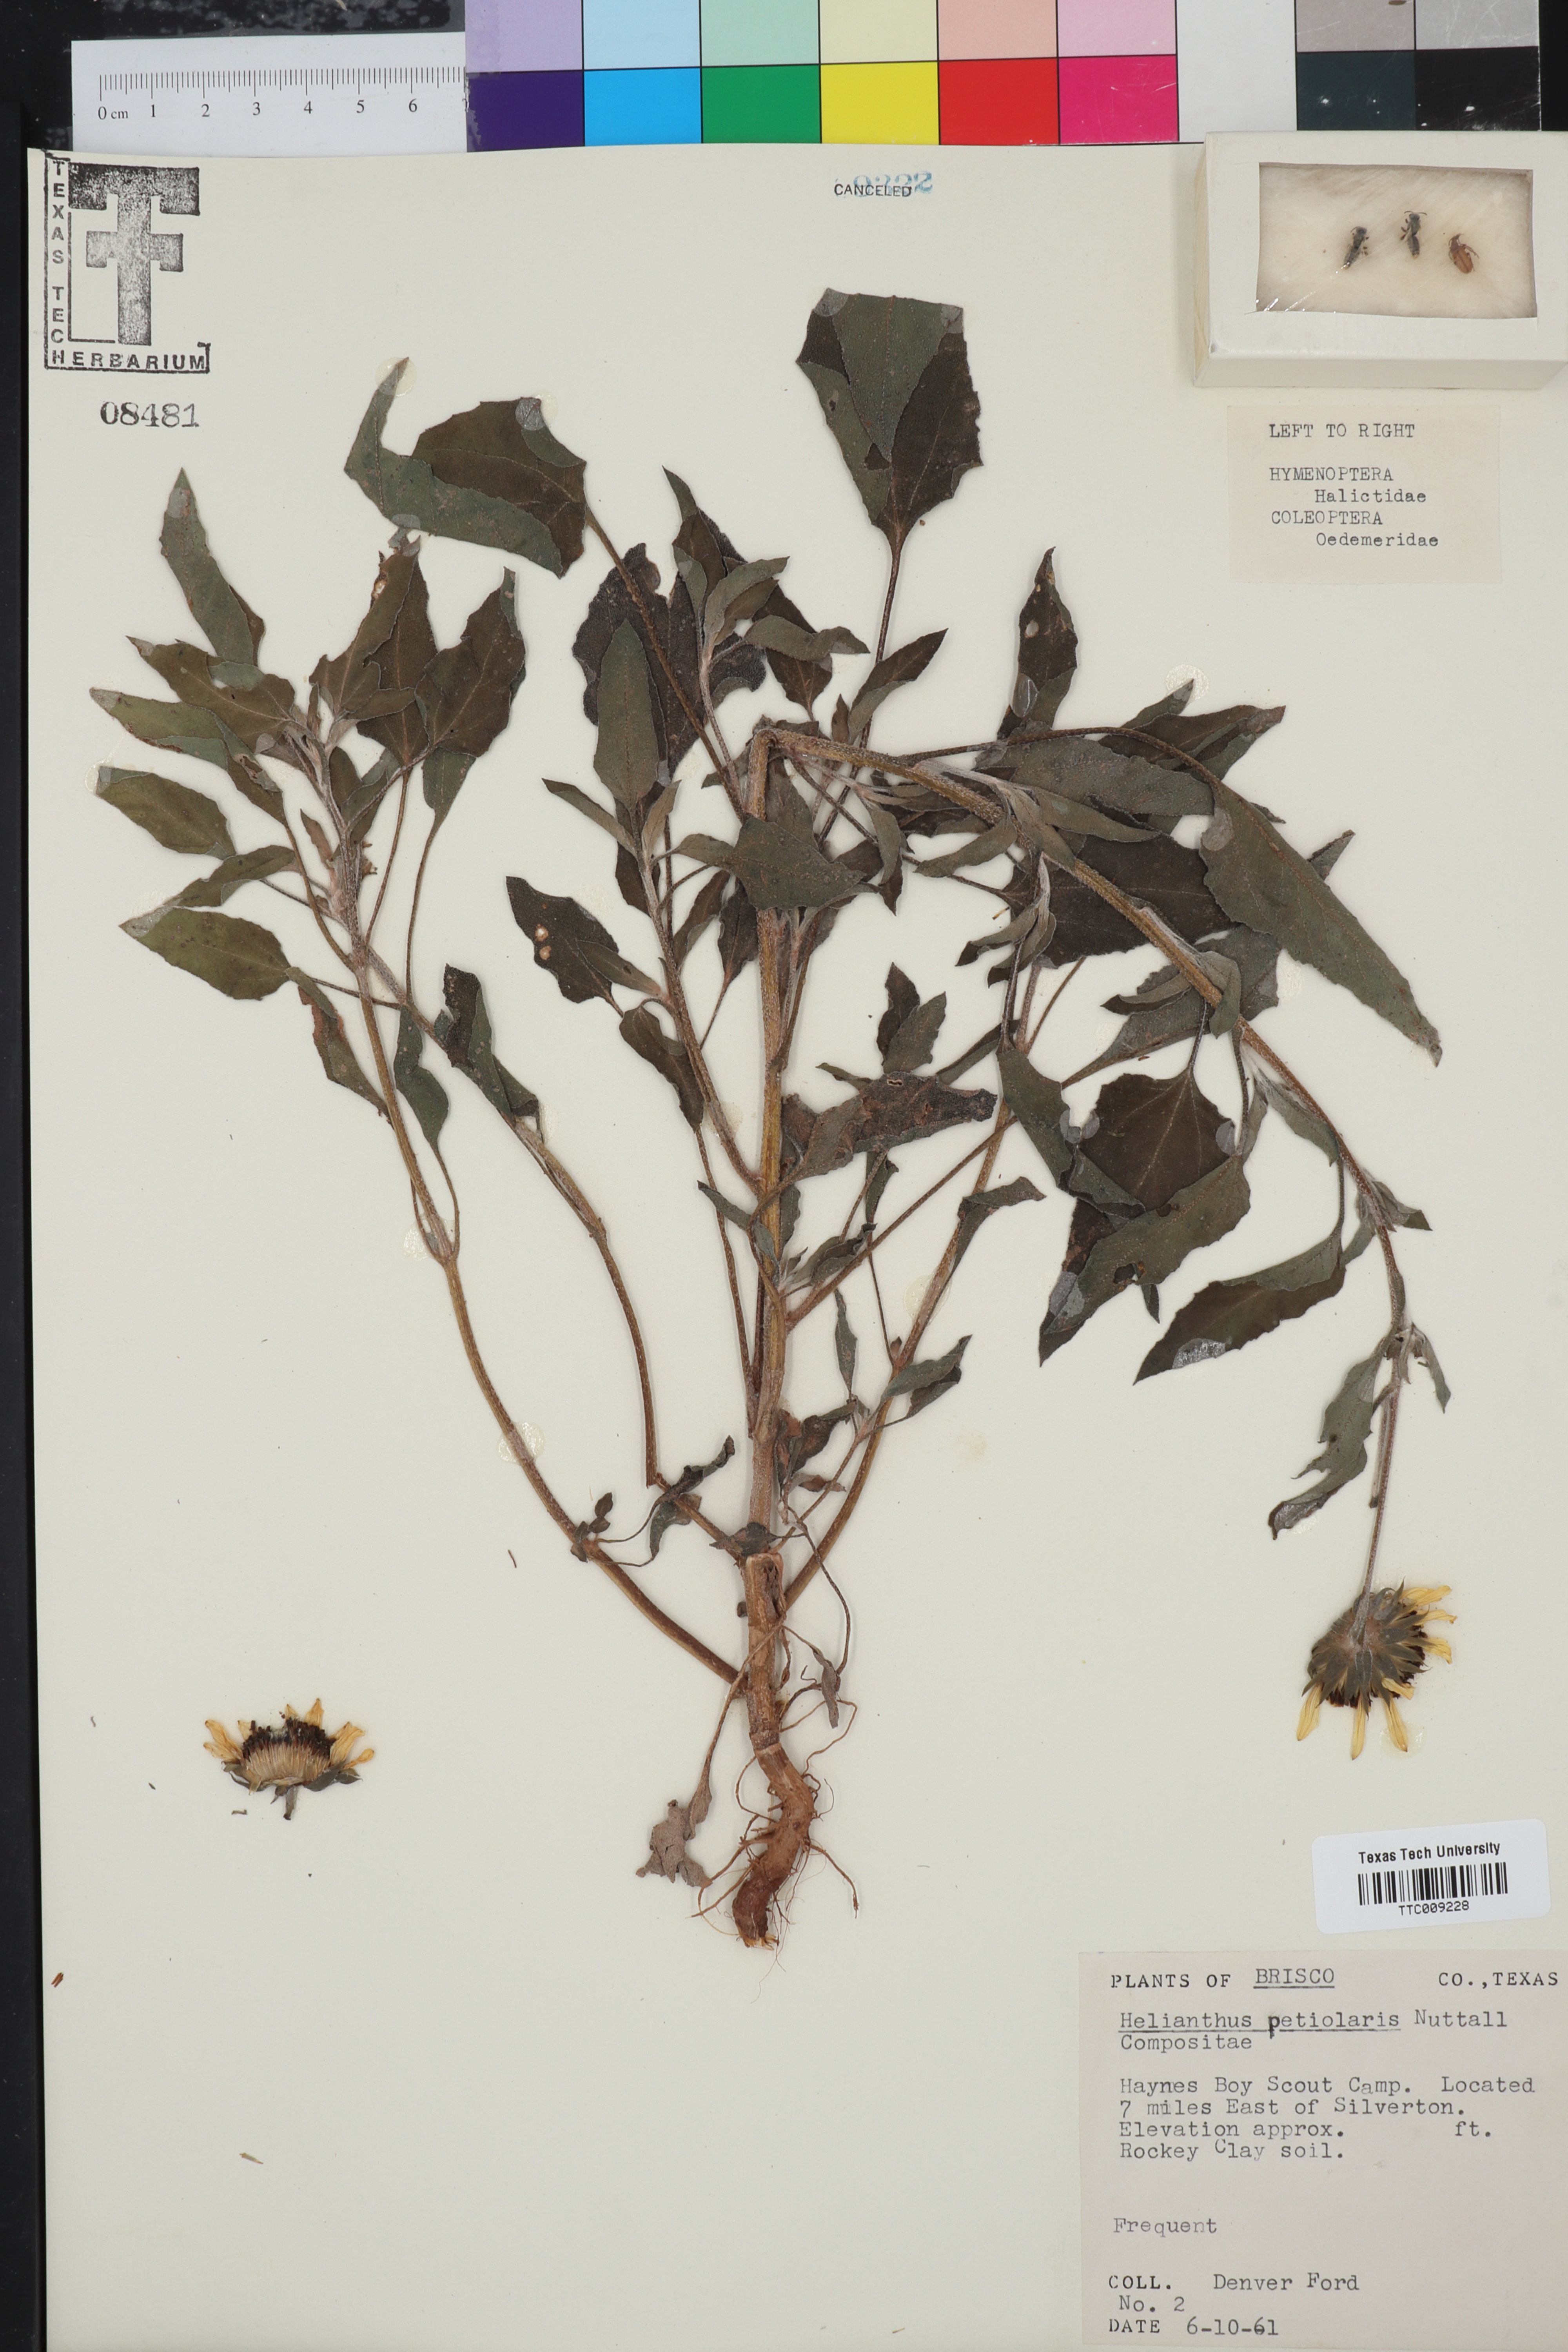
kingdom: Plantae
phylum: Tracheophyta
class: Magnoliopsida
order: Asterales
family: Asteraceae
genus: Helianthus
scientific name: Helianthus petiolaris
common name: Lesser sunflower
